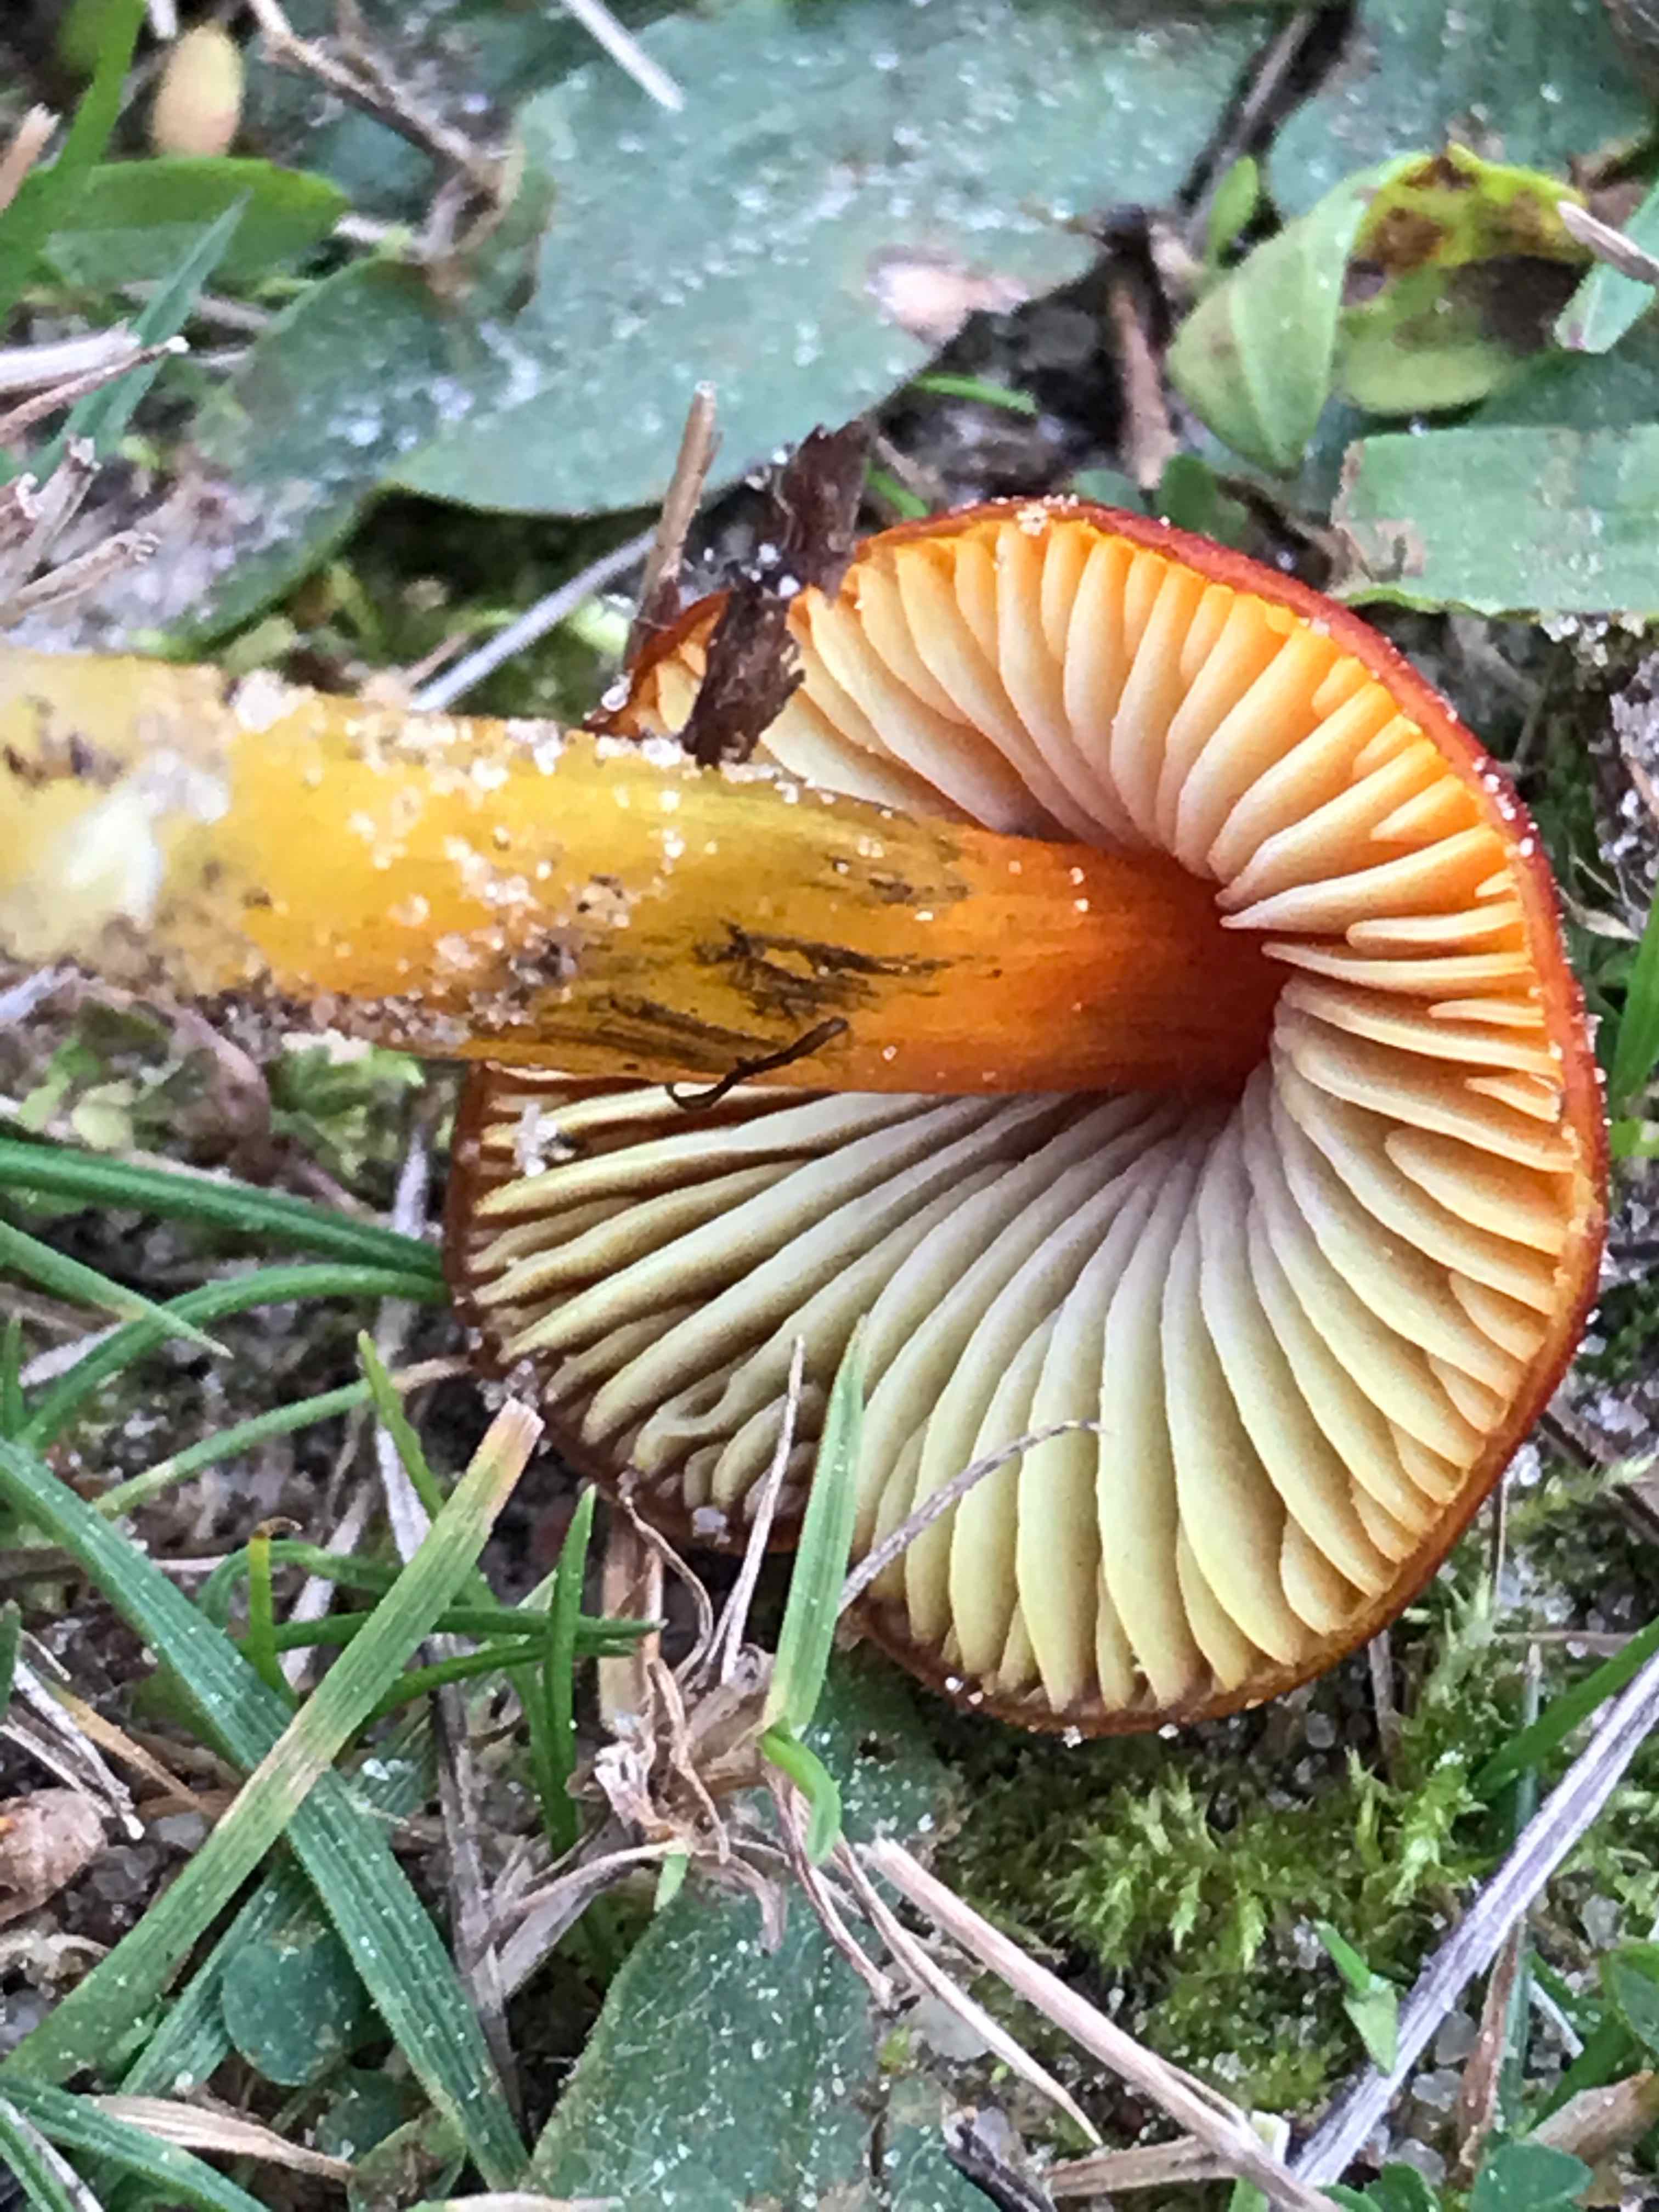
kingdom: Fungi
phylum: Basidiomycota
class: Agaricomycetes
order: Agaricales
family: Hygrophoraceae
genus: Hygrocybe
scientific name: Hygrocybe conica
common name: kegle-vokshat
